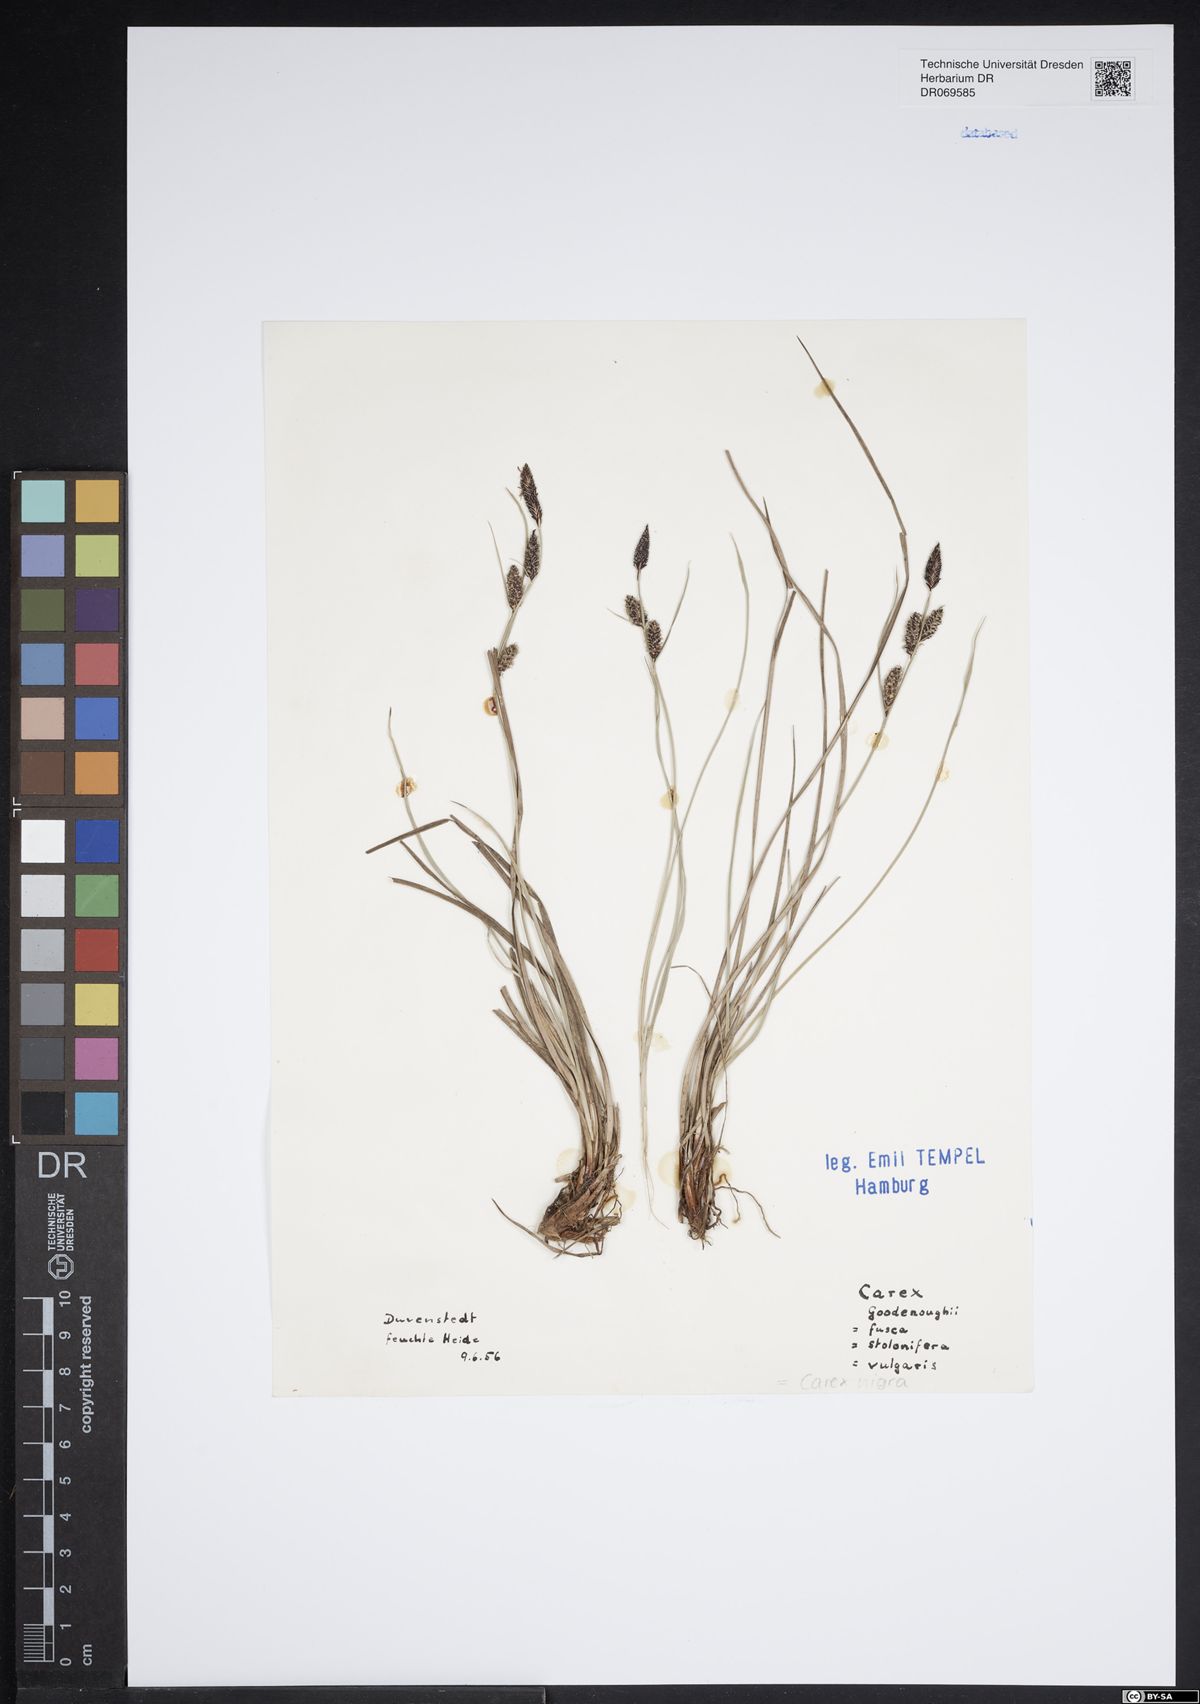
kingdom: Plantae
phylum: Tracheophyta
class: Liliopsida
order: Poales
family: Cyperaceae
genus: Carex
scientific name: Carex nigra
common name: Common sedge
